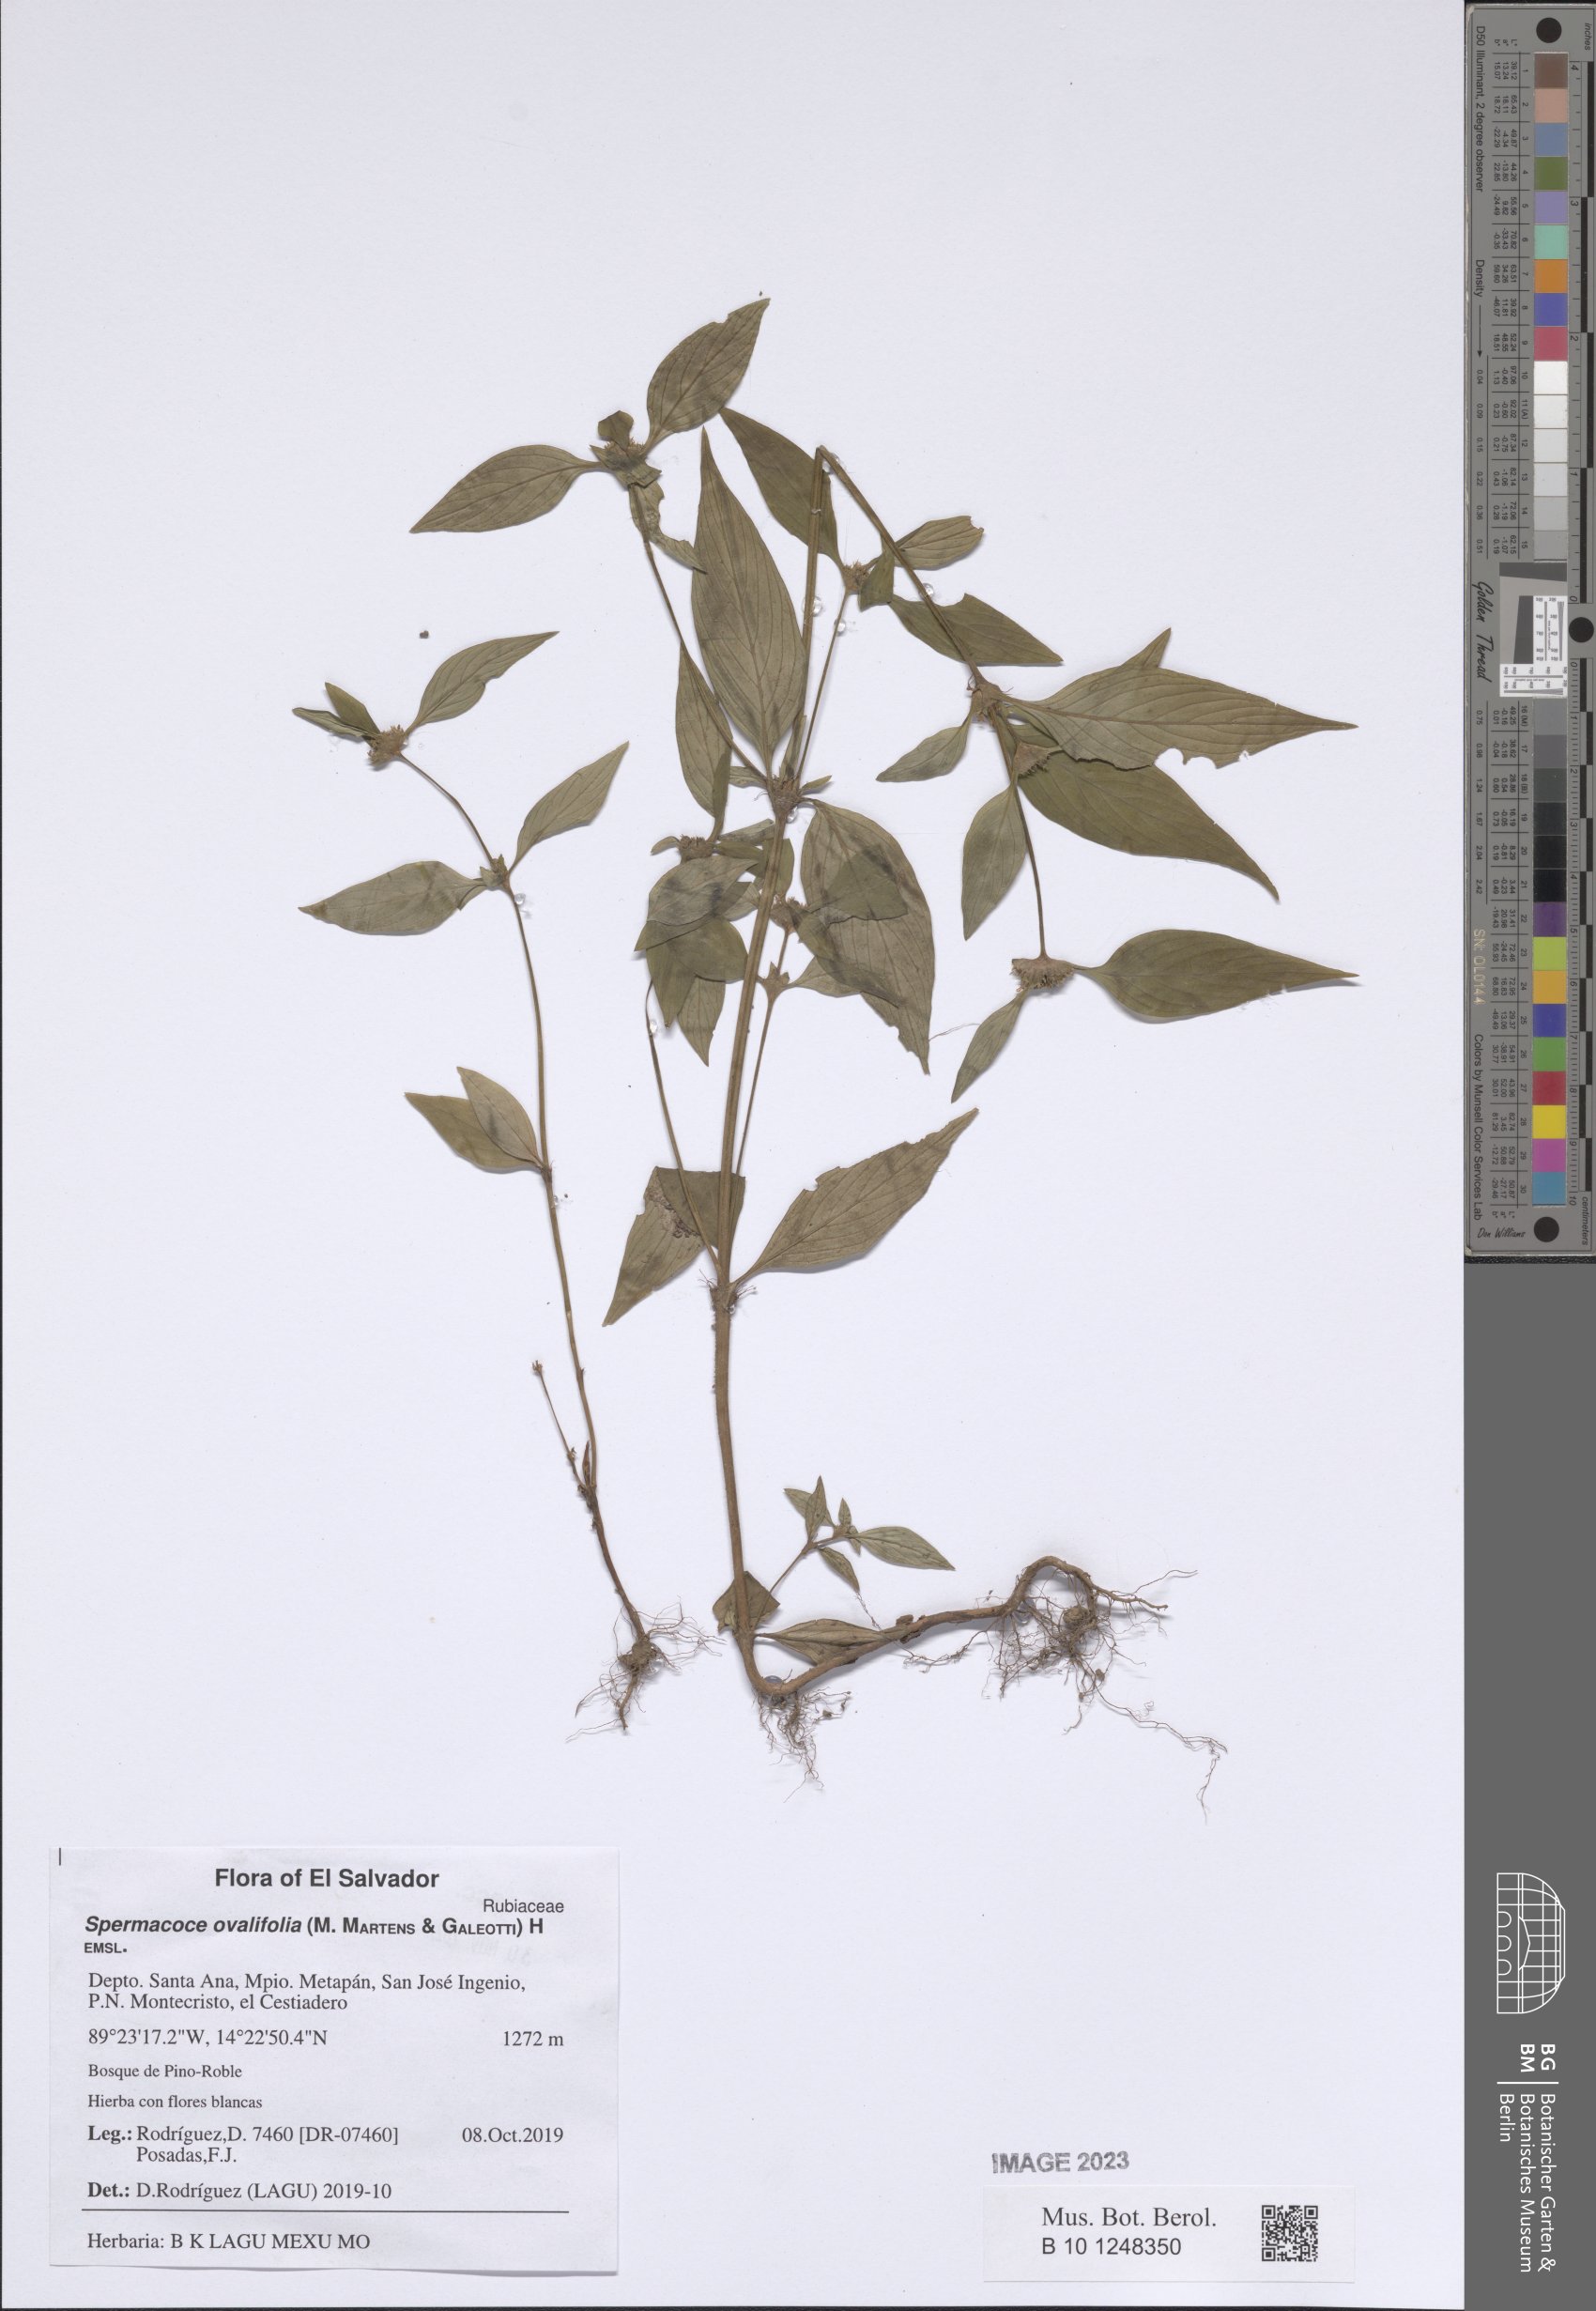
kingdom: Plantae
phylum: Tracheophyta
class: Magnoliopsida
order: Gentianales
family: Rubiaceae
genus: Spermacoce
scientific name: Spermacoce ovalifolia
